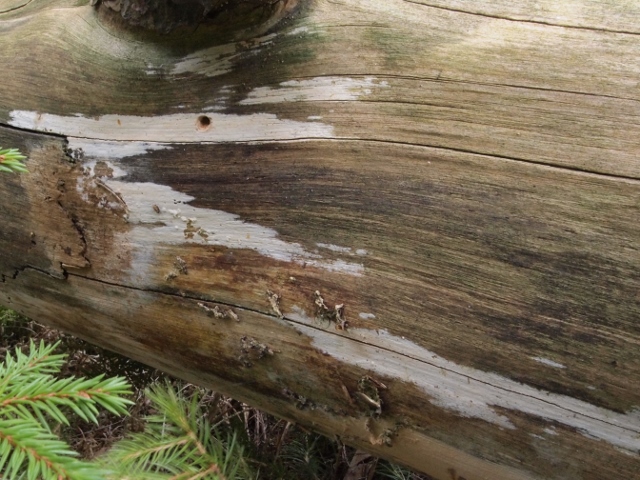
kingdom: Fungi
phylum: Basidiomycota
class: Agaricomycetes
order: Hymenochaetales
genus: Kurtia
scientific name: Kurtia argillacea
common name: Kurts kalkskind
